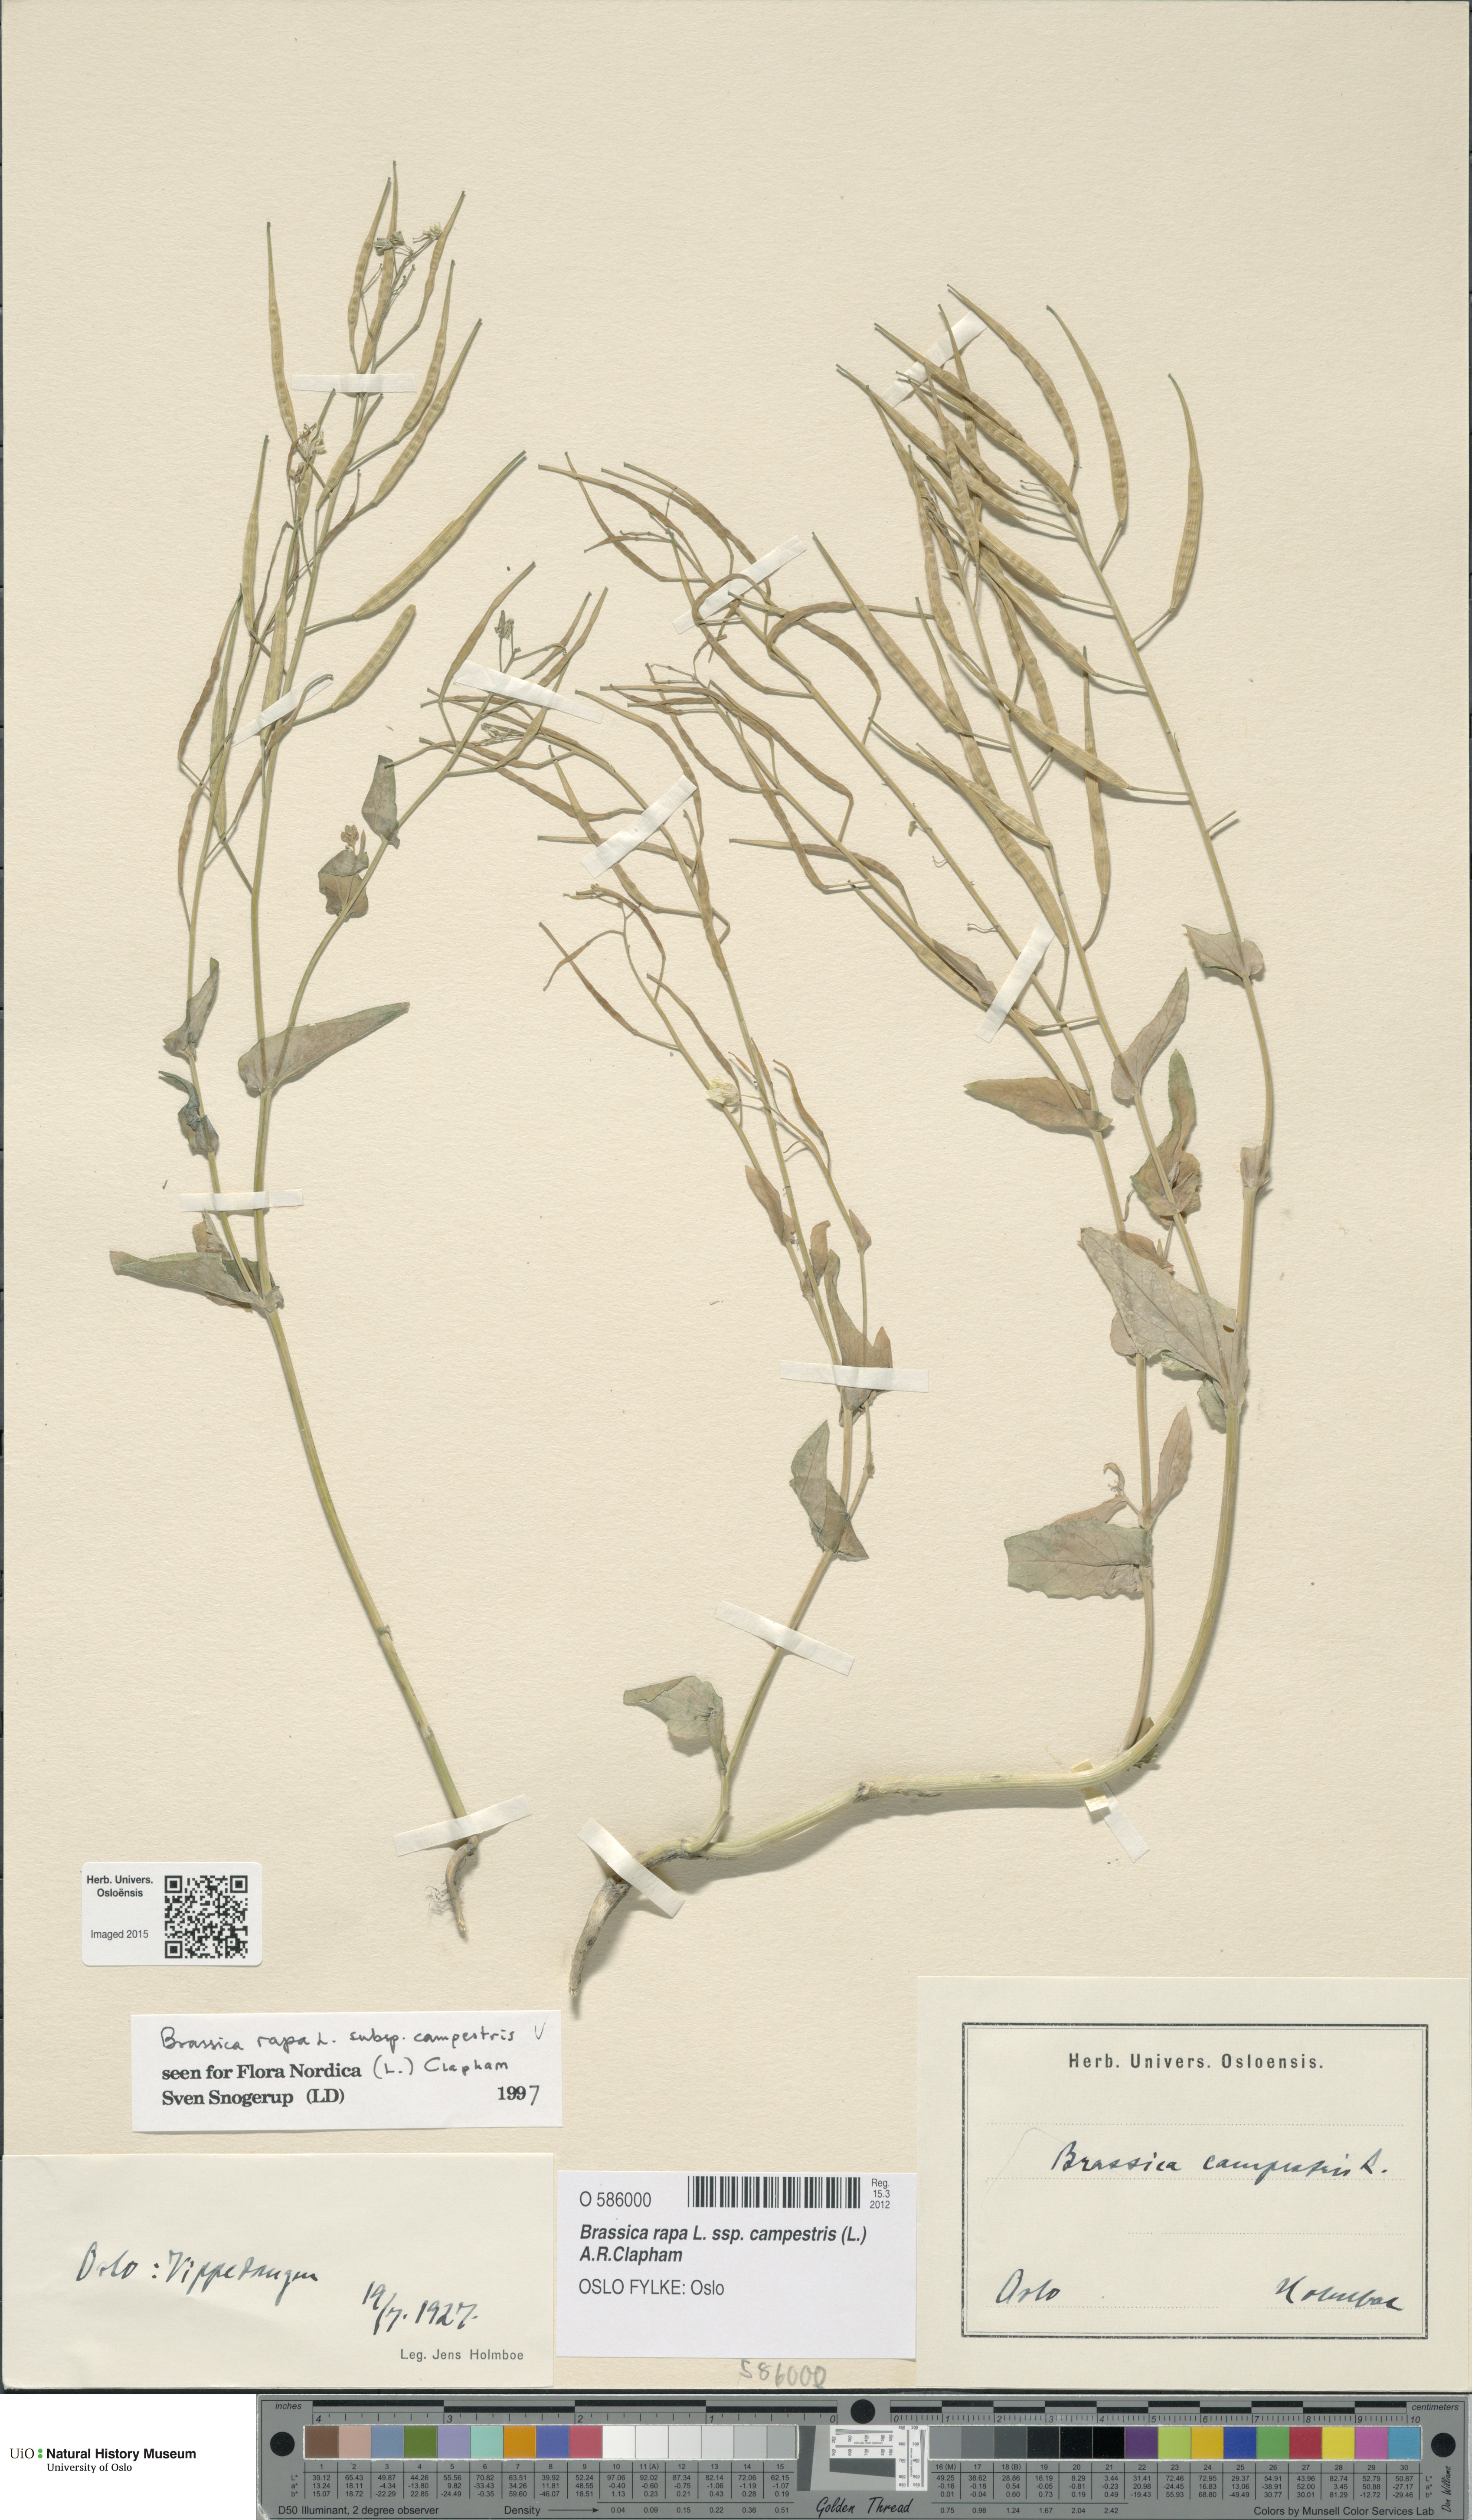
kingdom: Plantae
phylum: Tracheophyta
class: Magnoliopsida
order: Brassicales
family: Brassicaceae
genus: Brassica
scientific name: Brassica rapa
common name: Field mustard
